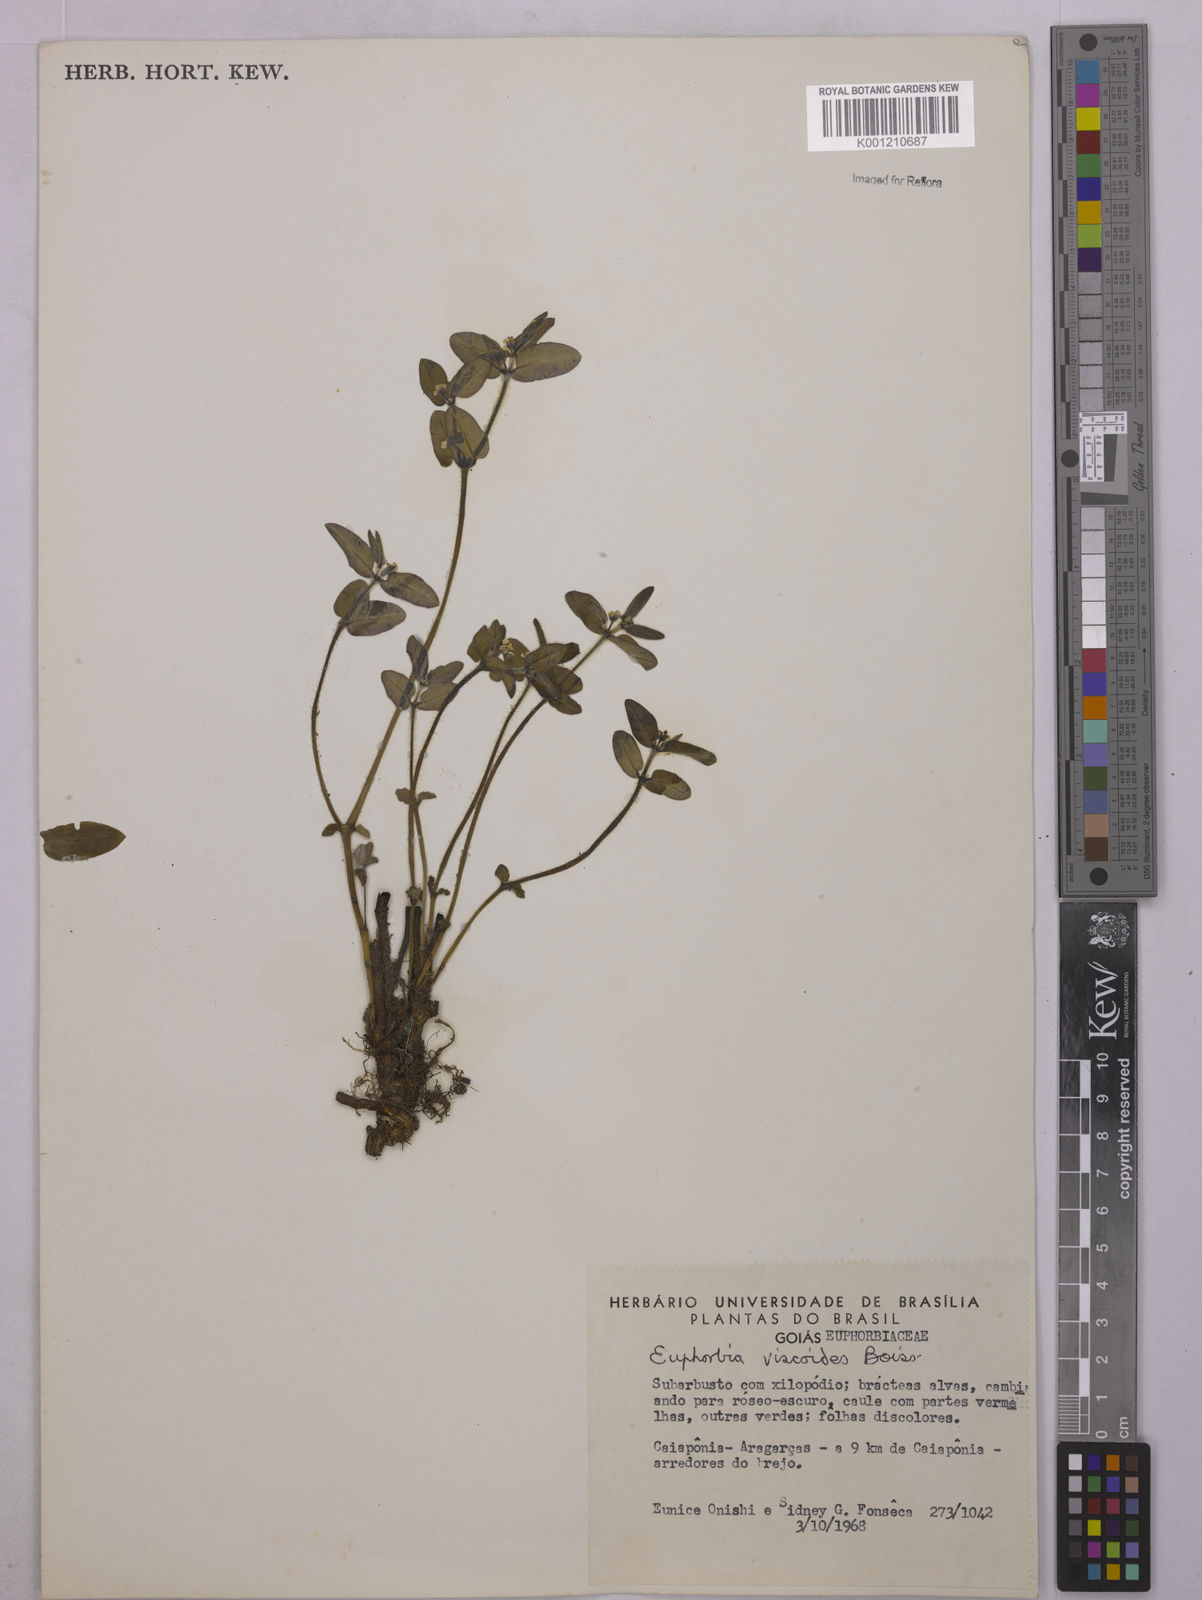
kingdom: Plantae
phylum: Tracheophyta
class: Magnoliopsida
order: Malpighiales
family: Euphorbiaceae
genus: Euphorbia
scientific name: Euphorbia viscoides
